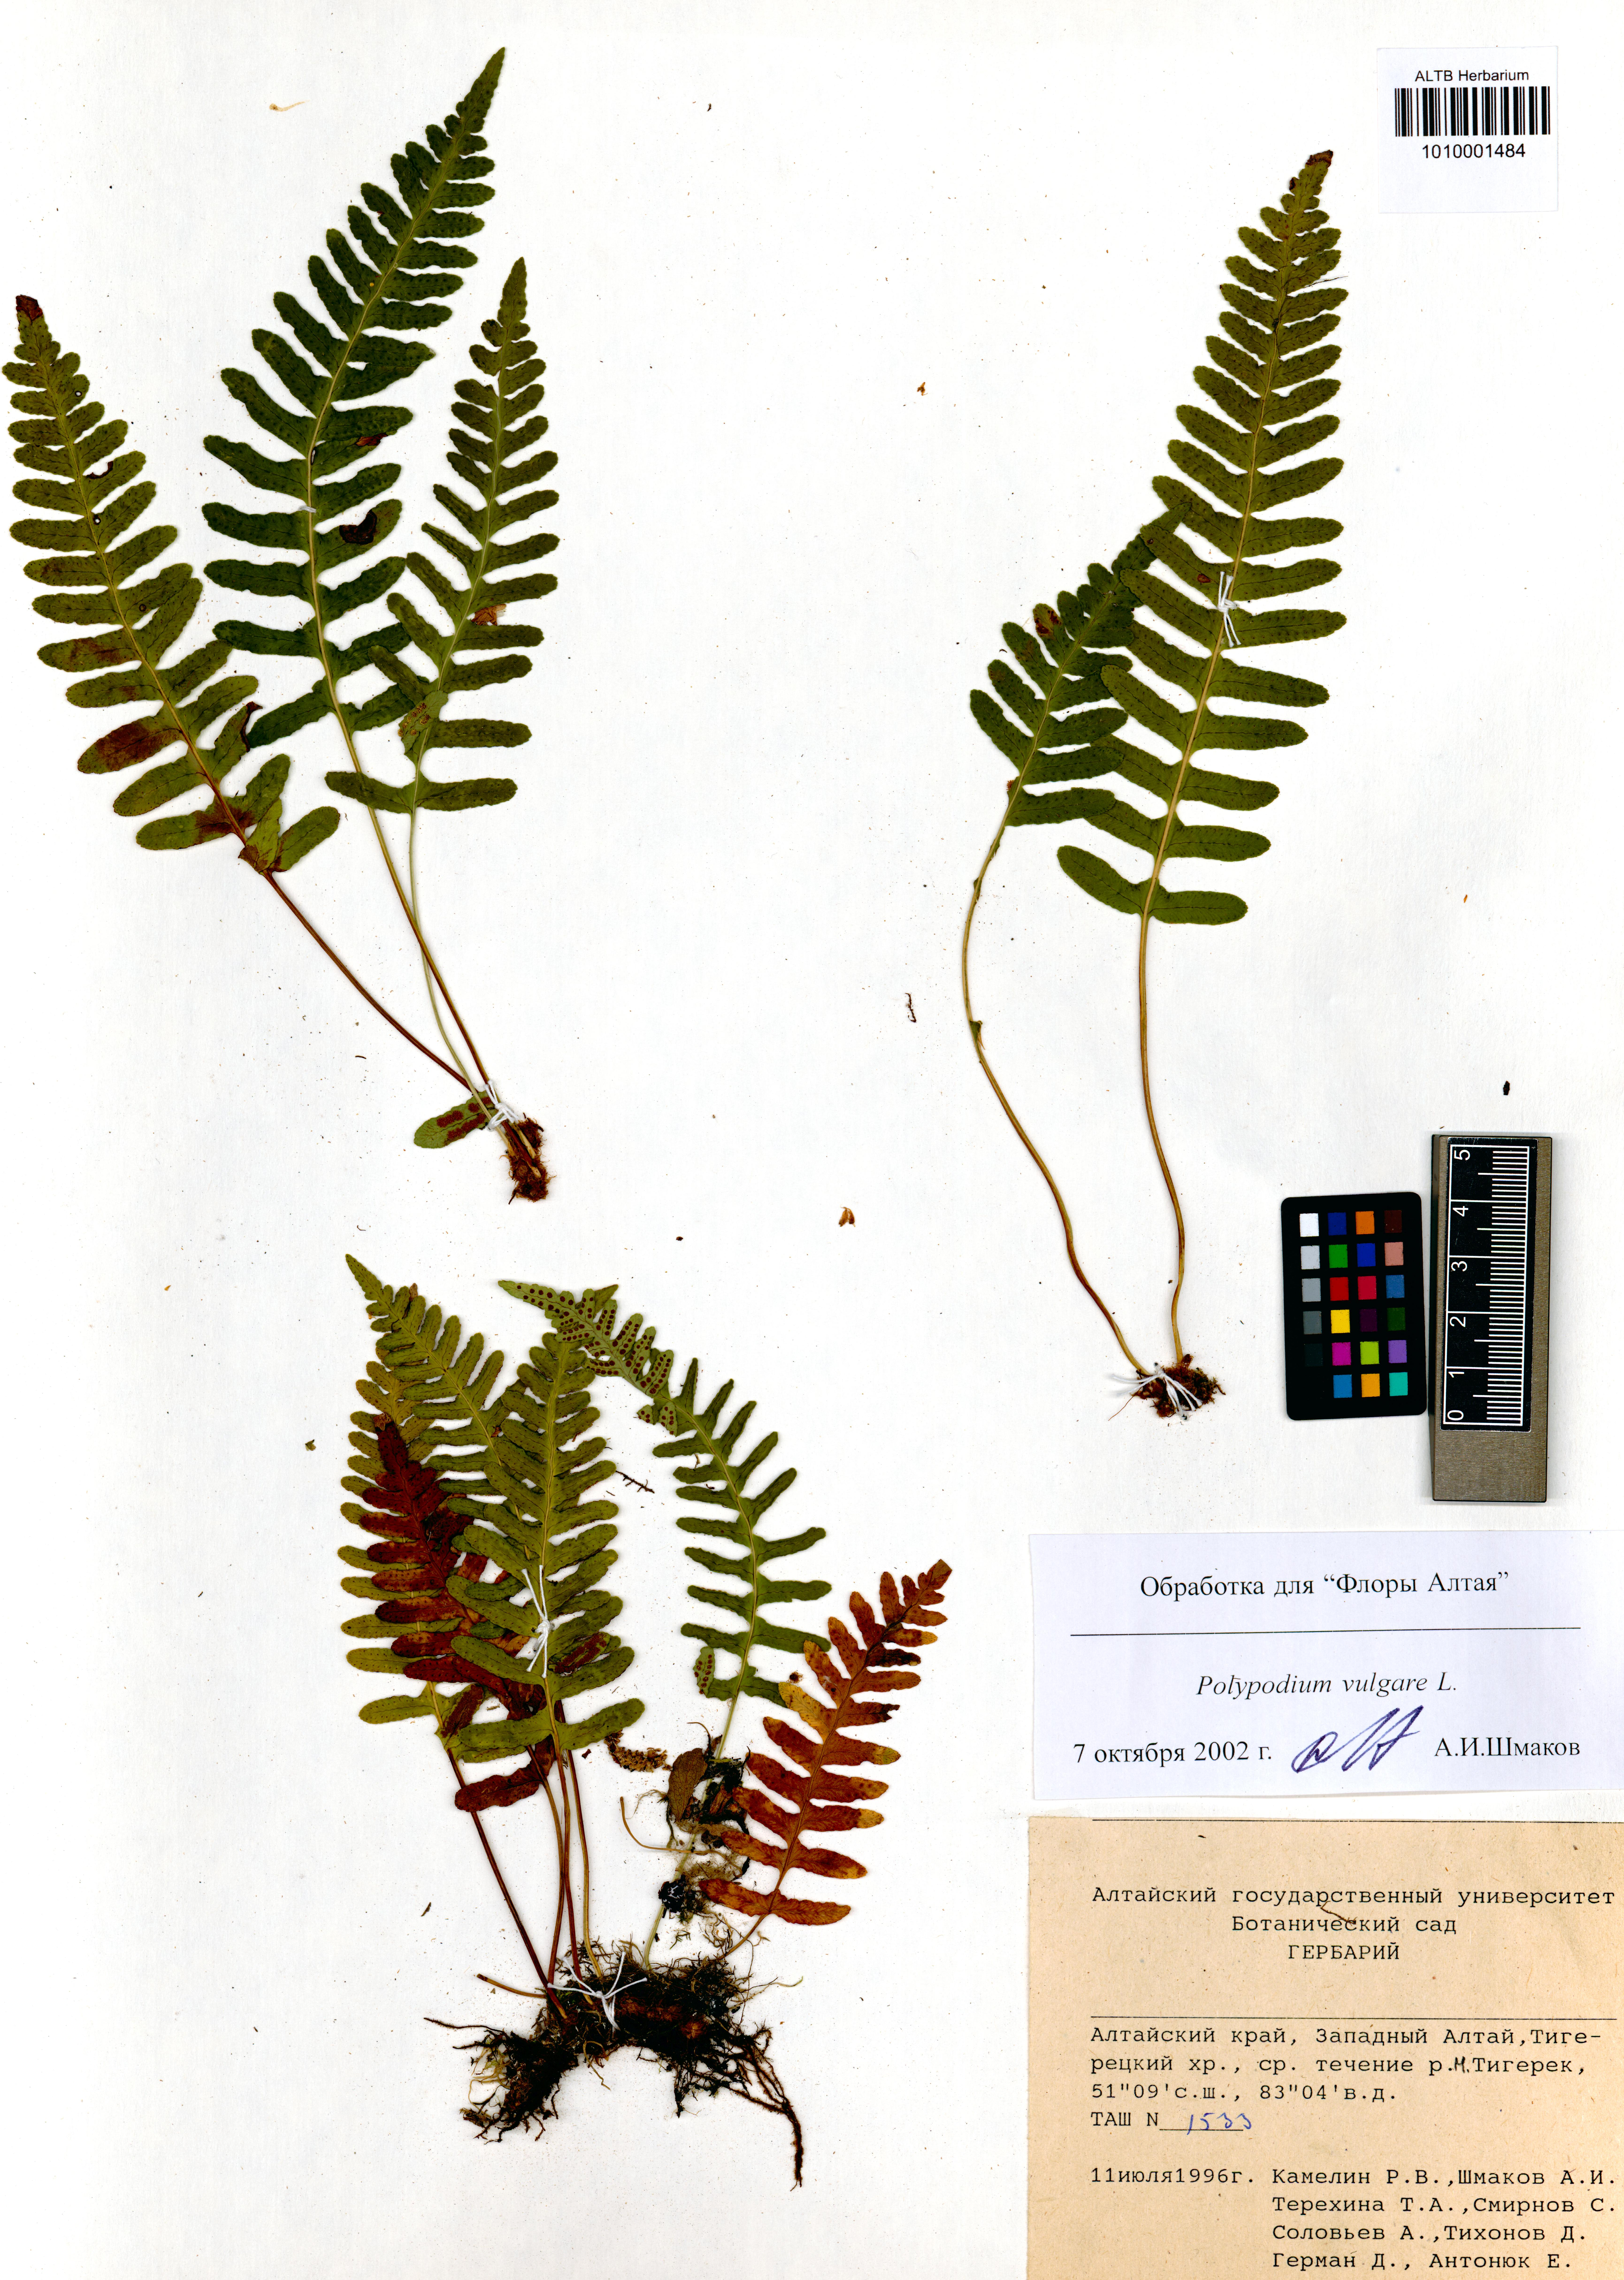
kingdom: Plantae
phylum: Tracheophyta
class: Polypodiopsida
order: Polypodiales
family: Polypodiaceae
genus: Polypodium
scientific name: Polypodium vulgare
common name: Common polypody
